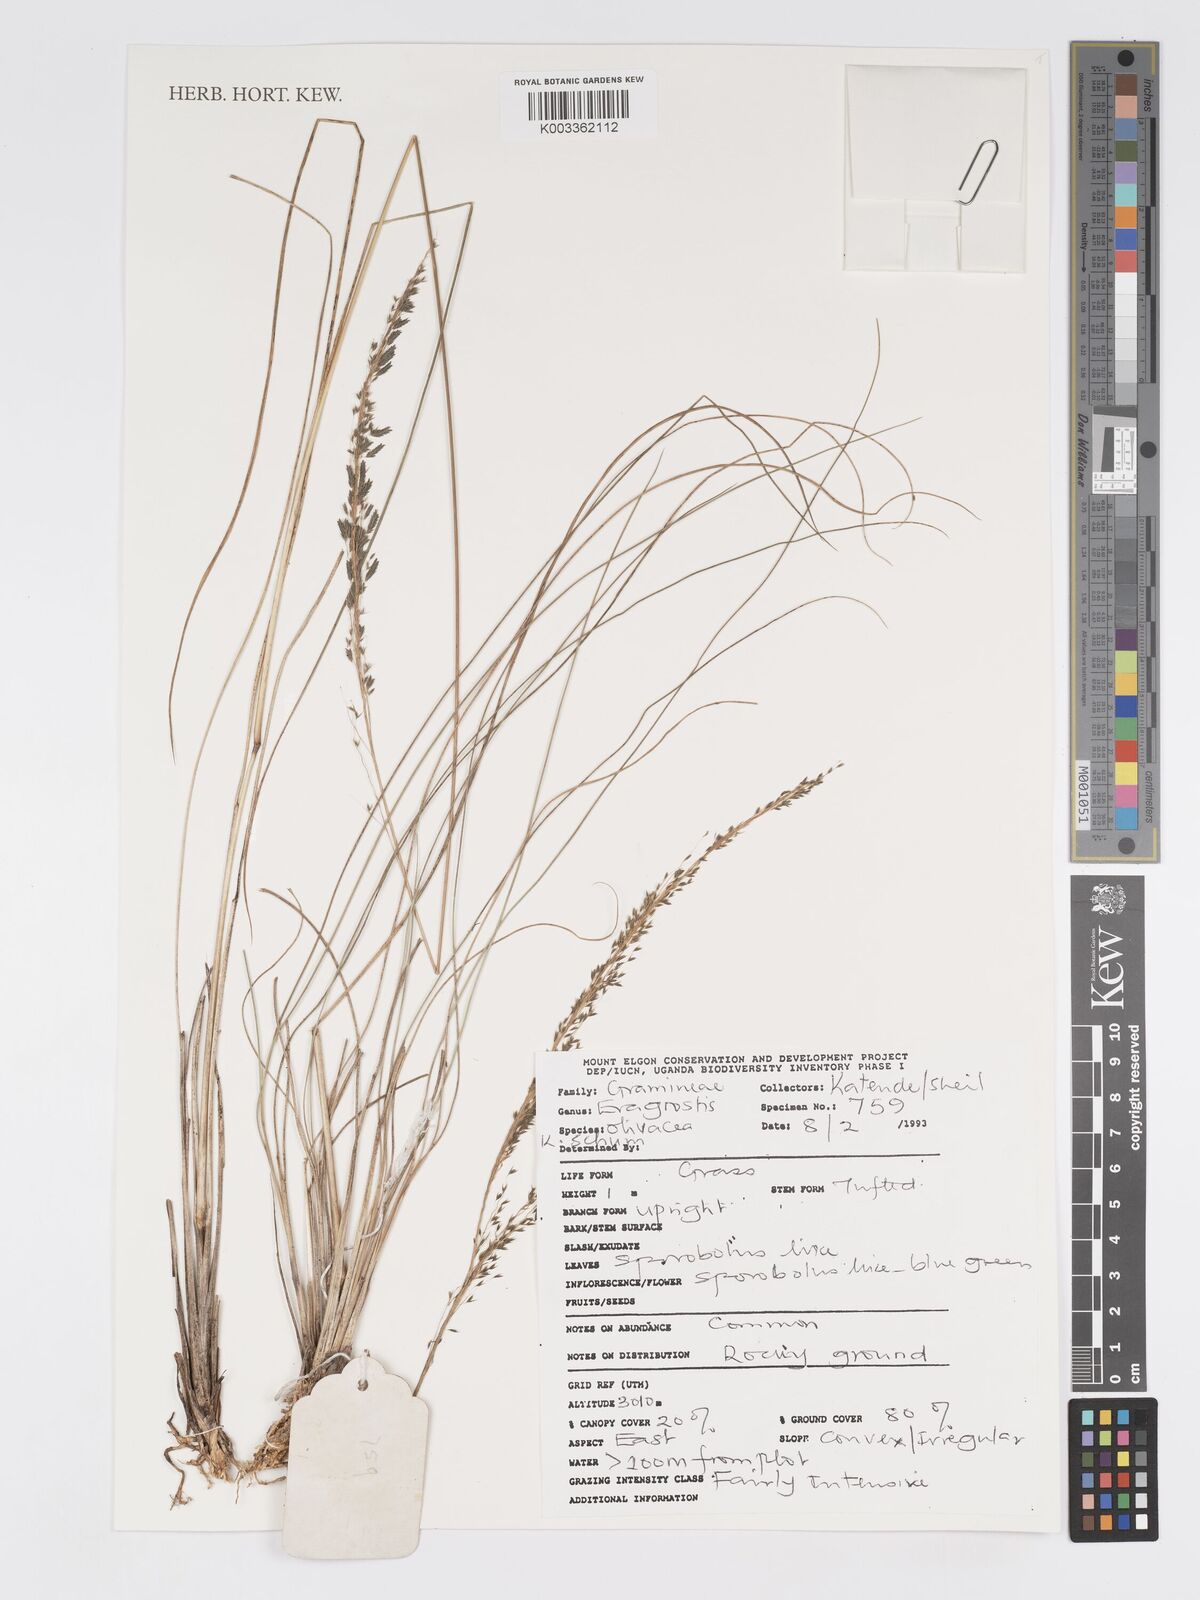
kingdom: Plantae
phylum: Tracheophyta
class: Liliopsida
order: Poales
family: Poaceae
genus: Eragrostis
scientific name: Eragrostis olivacea
